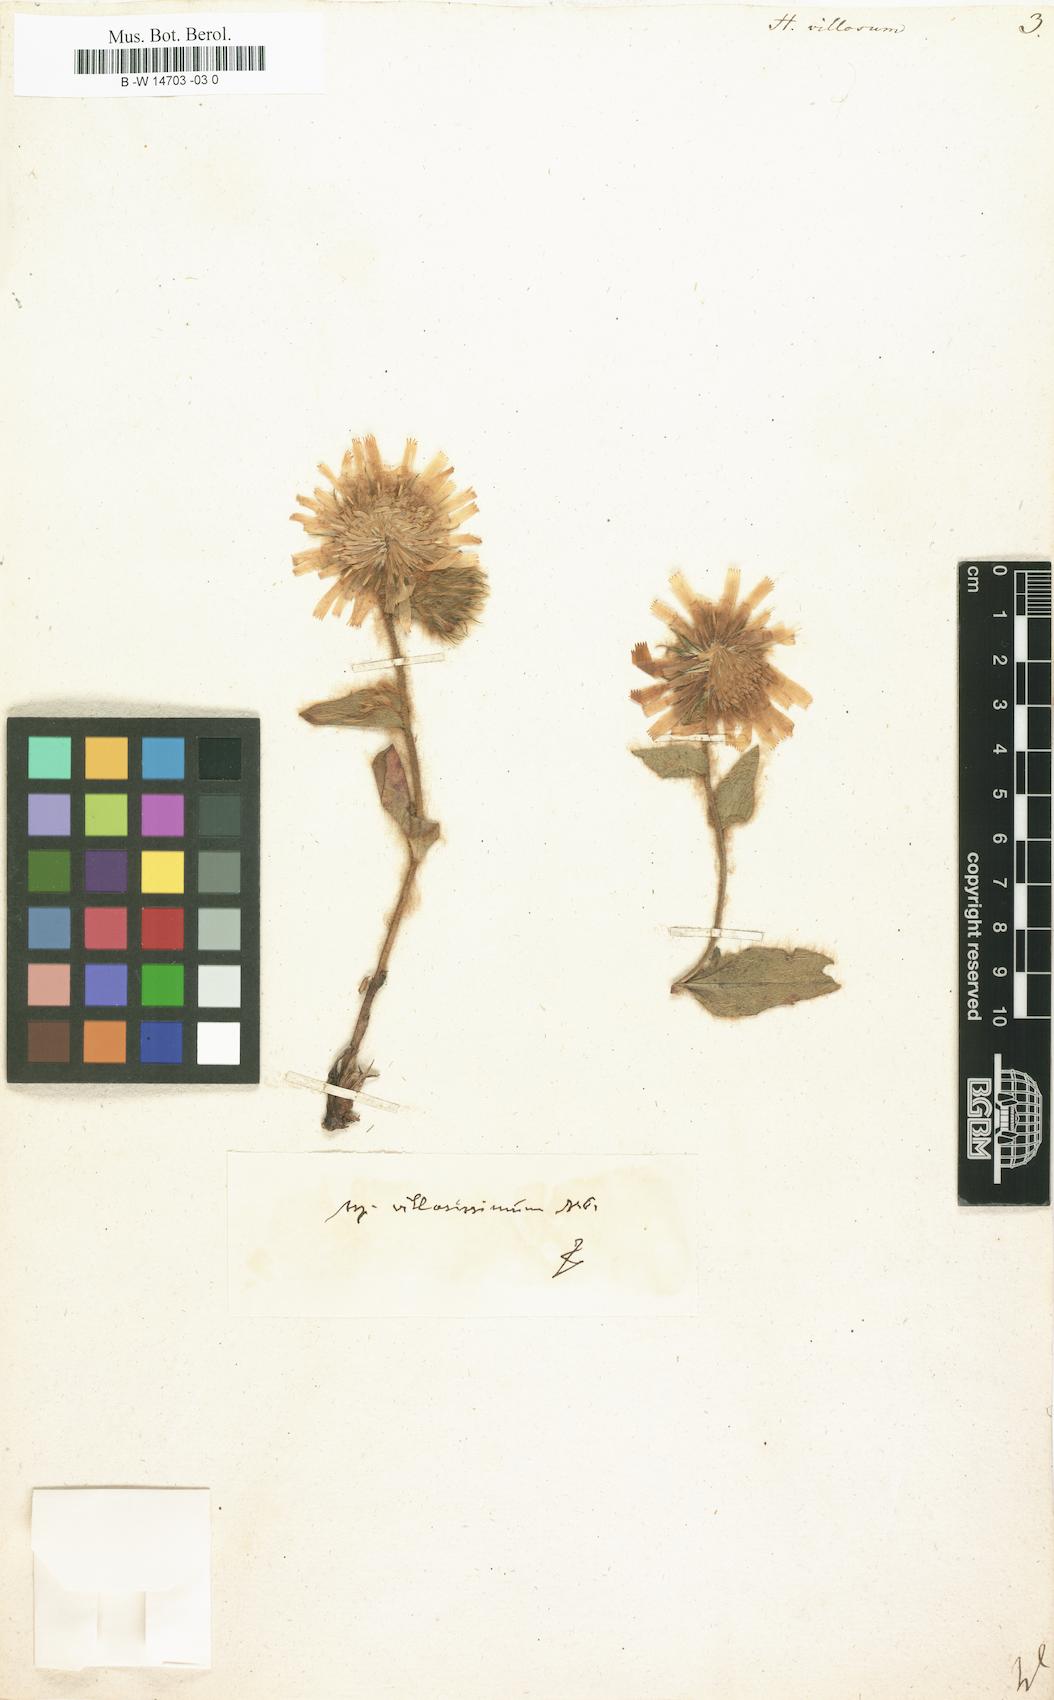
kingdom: Plantae
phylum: Tracheophyta
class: Magnoliopsida
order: Asterales
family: Asteraceae
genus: Hieracium
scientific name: Hieracium villosum
